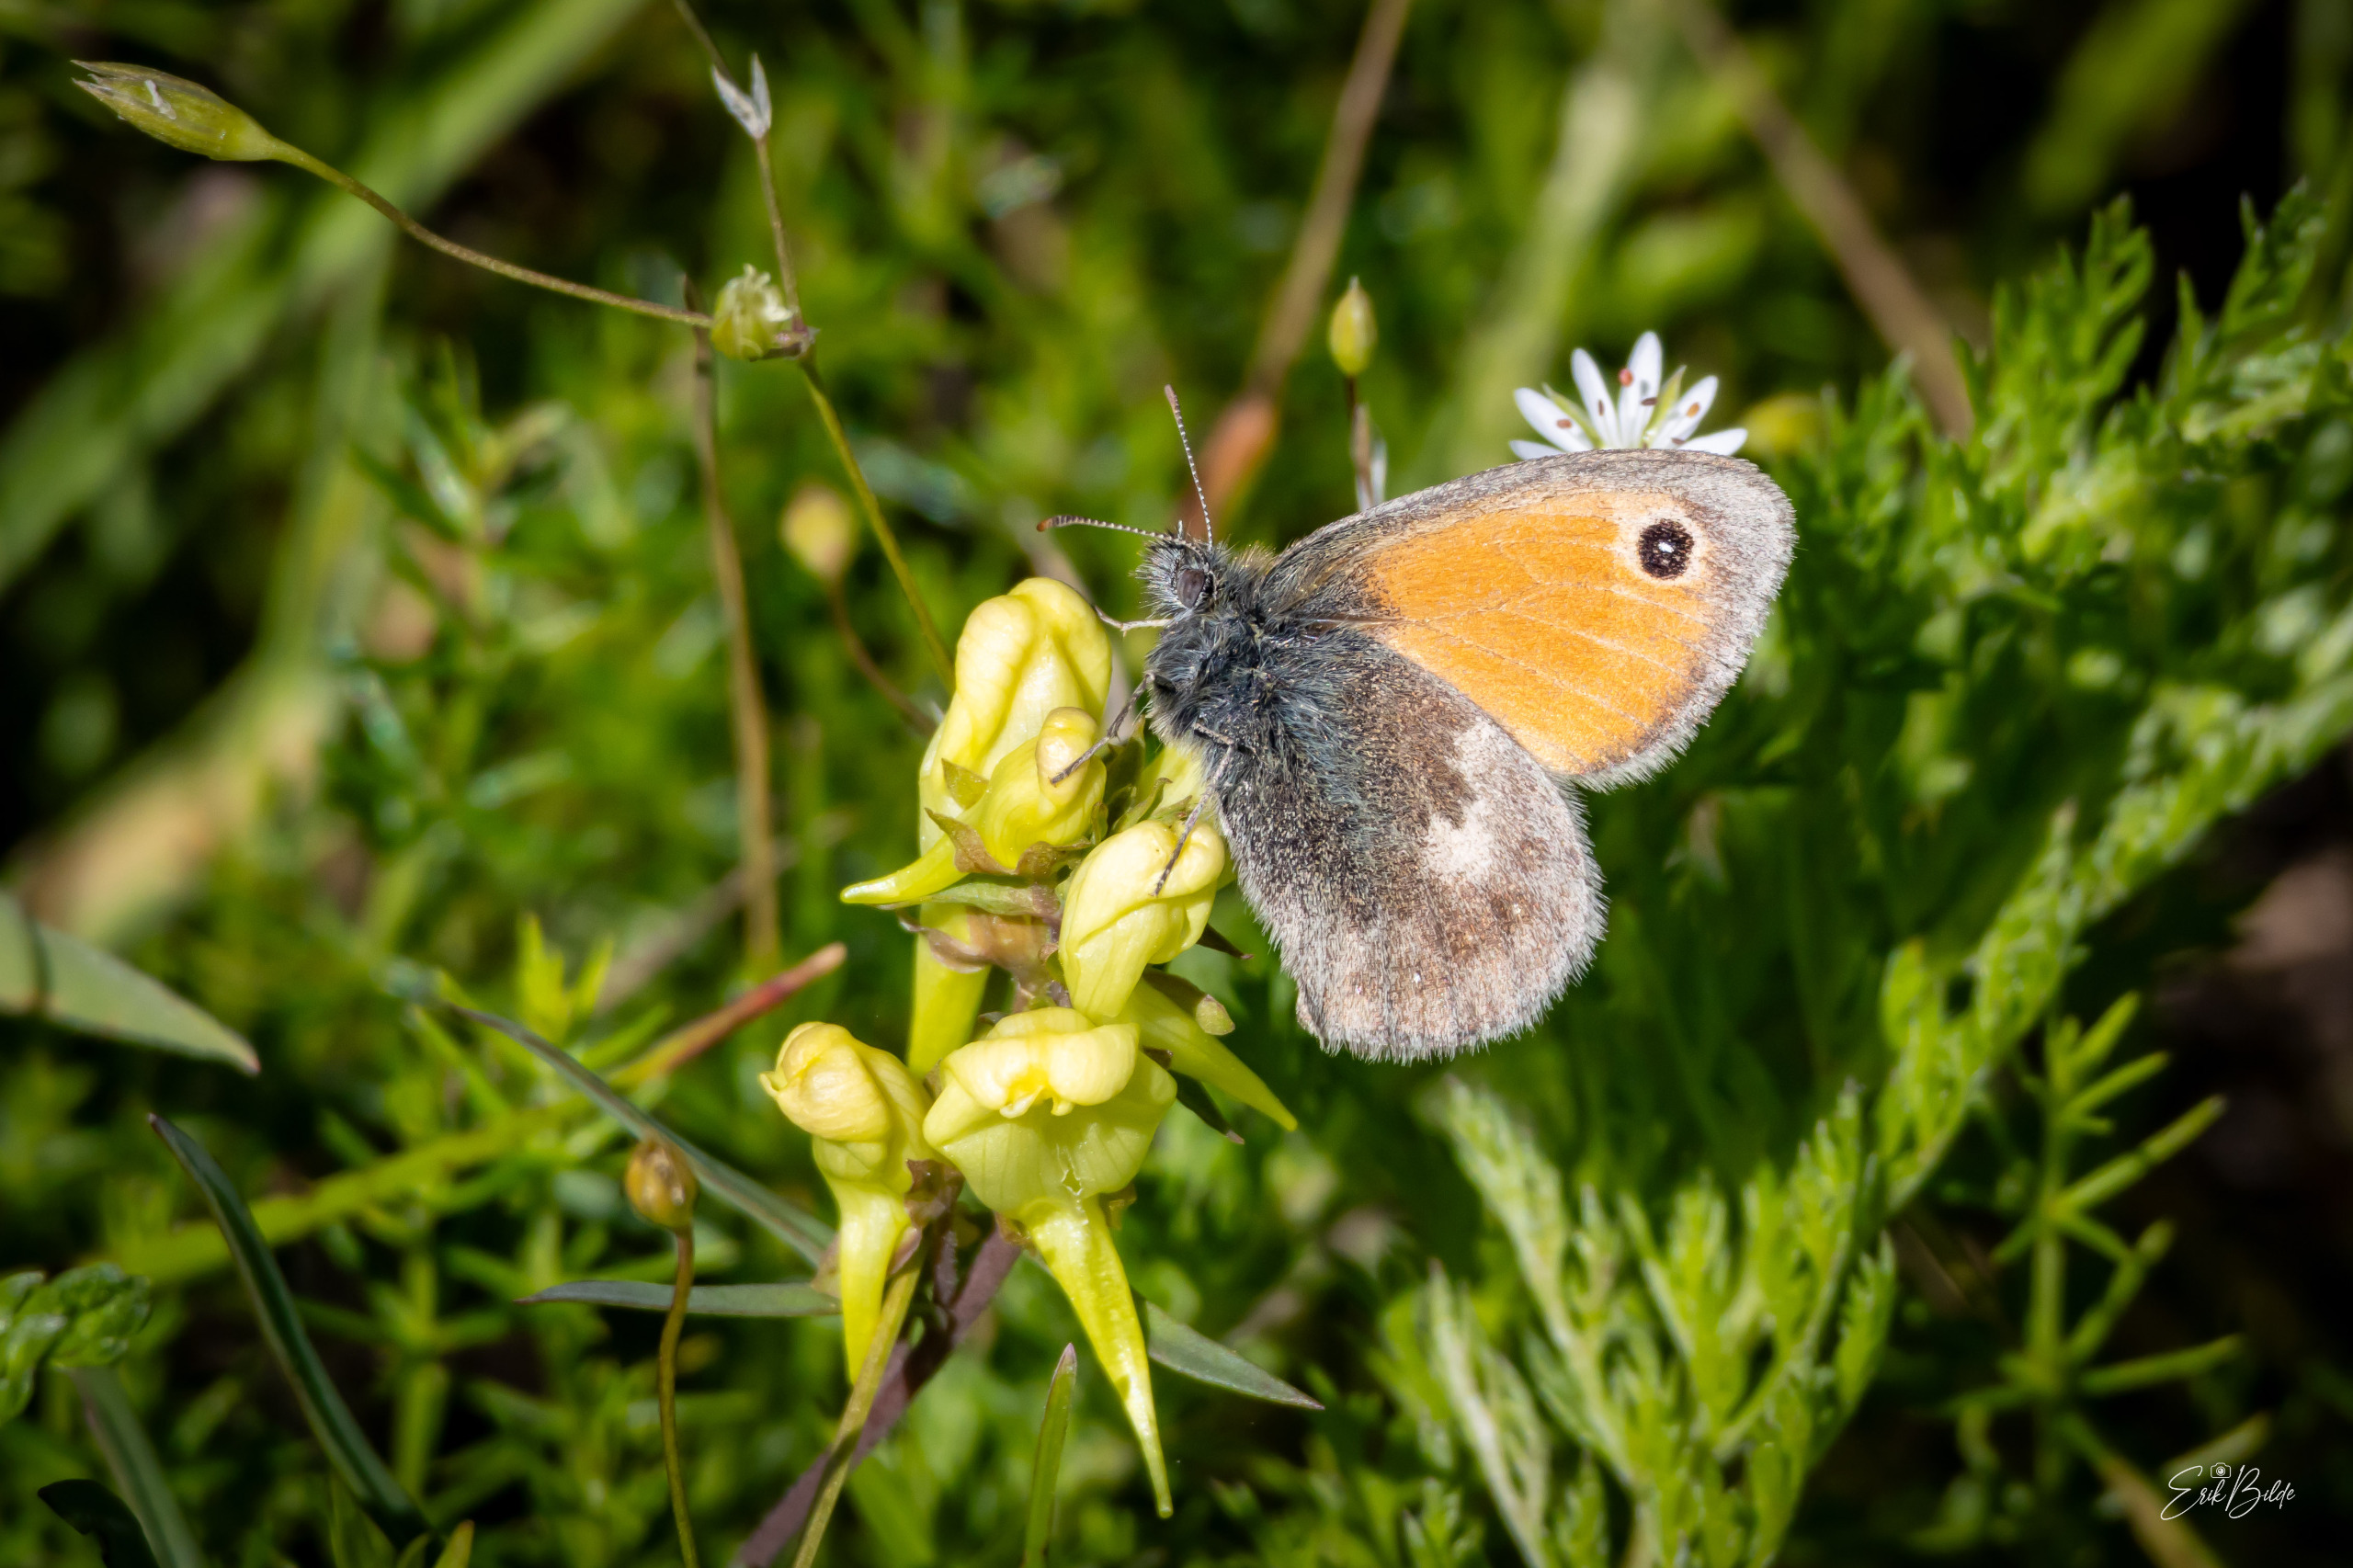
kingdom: Animalia
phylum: Arthropoda
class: Insecta
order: Lepidoptera
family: Nymphalidae
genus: Coenonympha
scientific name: Coenonympha pamphilus
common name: Okkergul randøje
